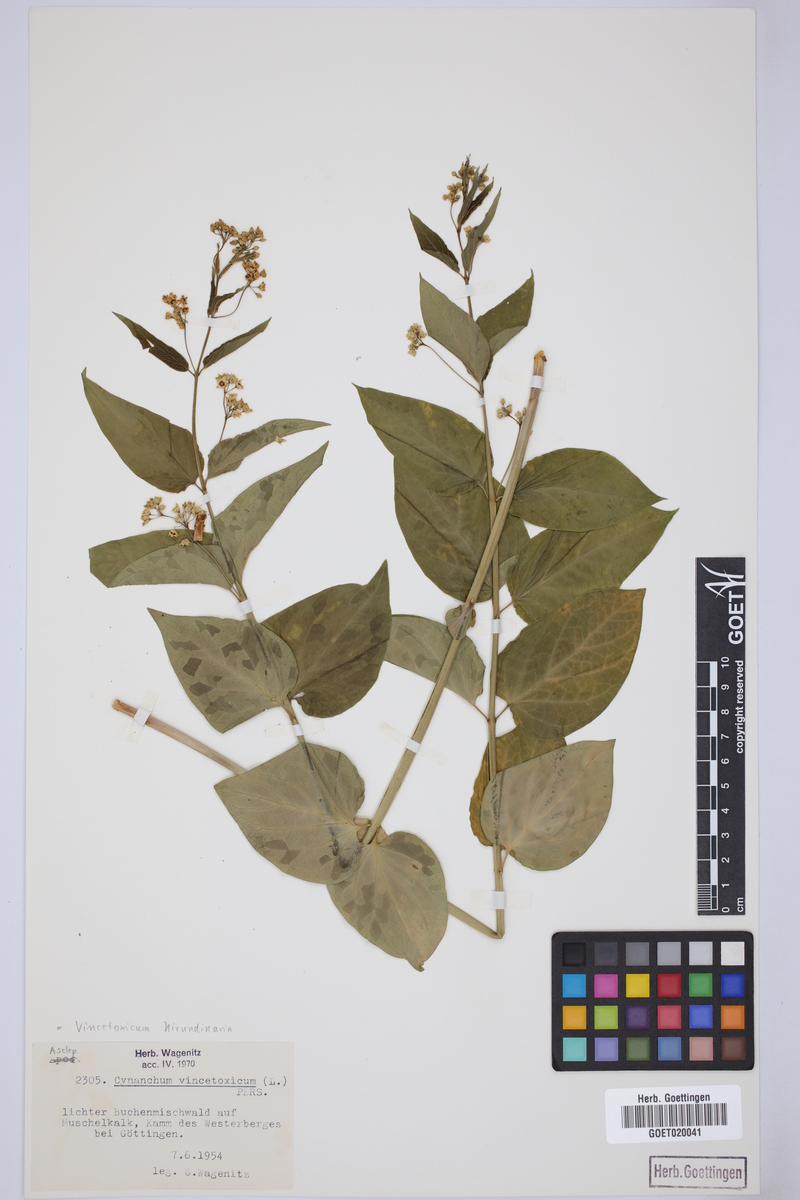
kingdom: Plantae
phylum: Tracheophyta
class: Magnoliopsida
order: Gentianales
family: Apocynaceae
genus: Vincetoxicum
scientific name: Vincetoxicum hirundinaria
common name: White swallowwort
